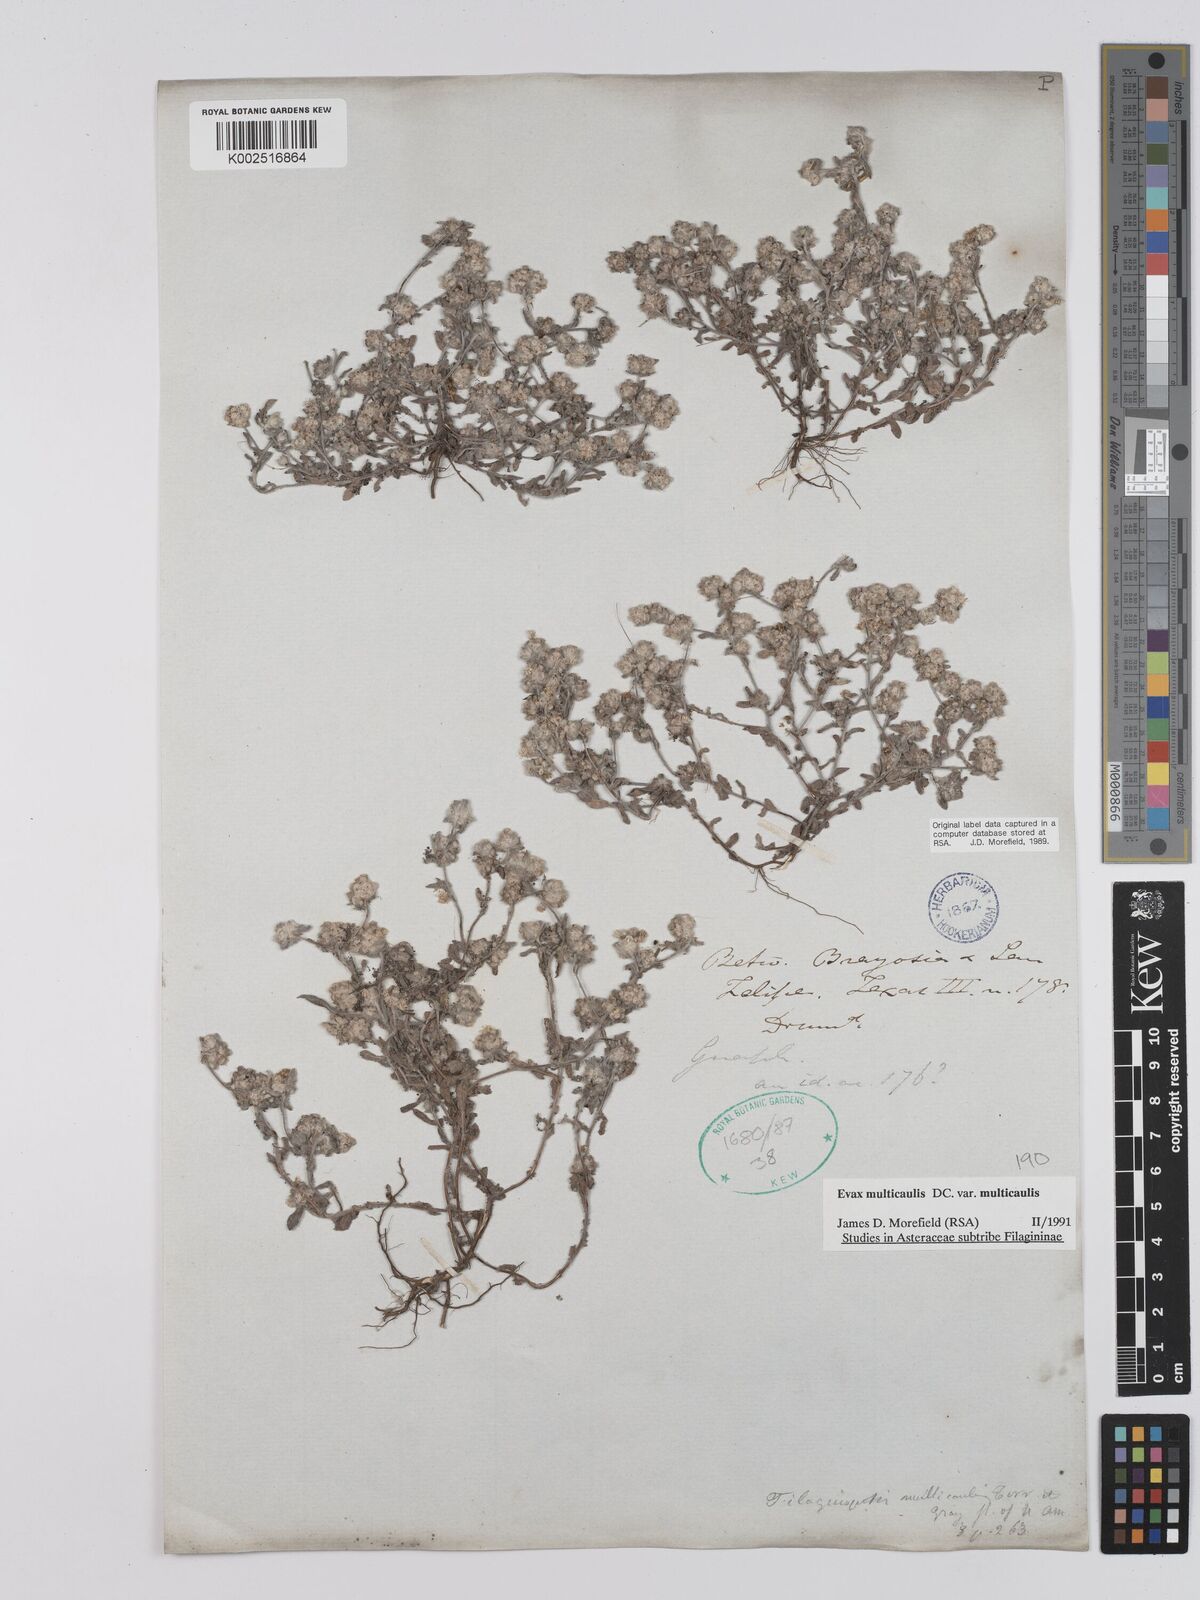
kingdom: Plantae
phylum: Tracheophyta
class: Magnoliopsida
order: Asterales
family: Asteraceae
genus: Filago
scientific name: Filago
